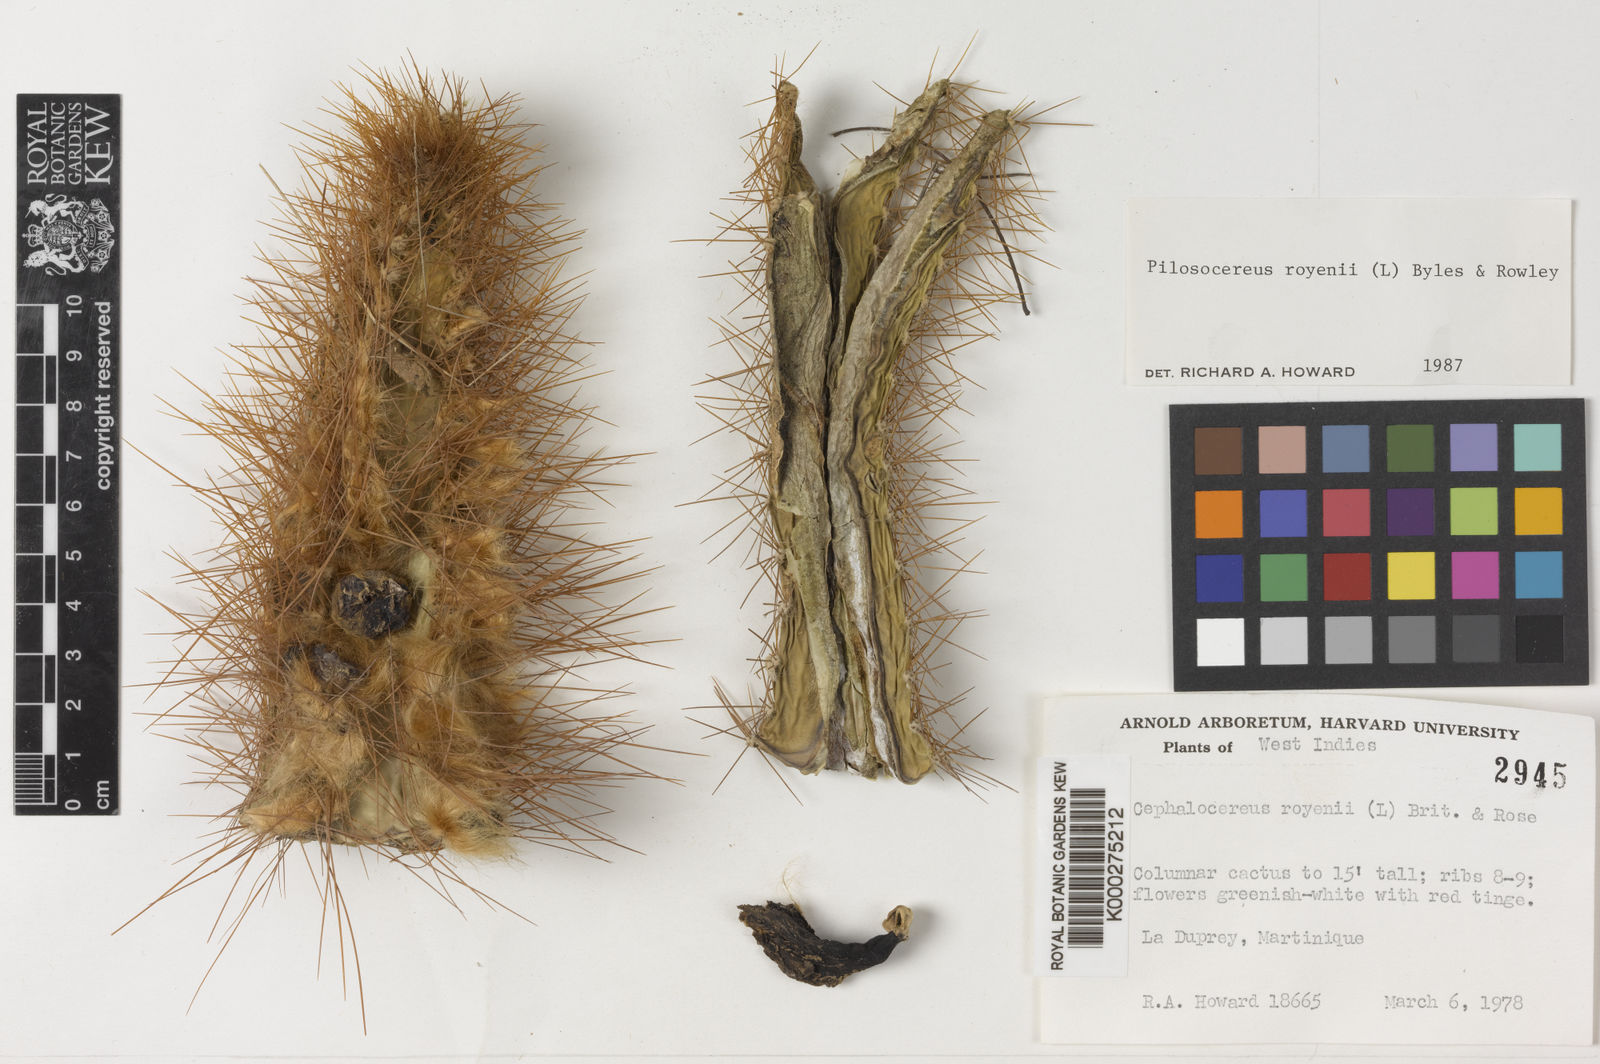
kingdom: Plantae
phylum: Tracheophyta
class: Magnoliopsida
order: Caryophyllales
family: Cactaceae
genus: Pilosocereus
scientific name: Pilosocereus polygonus
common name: Key tree cactus
